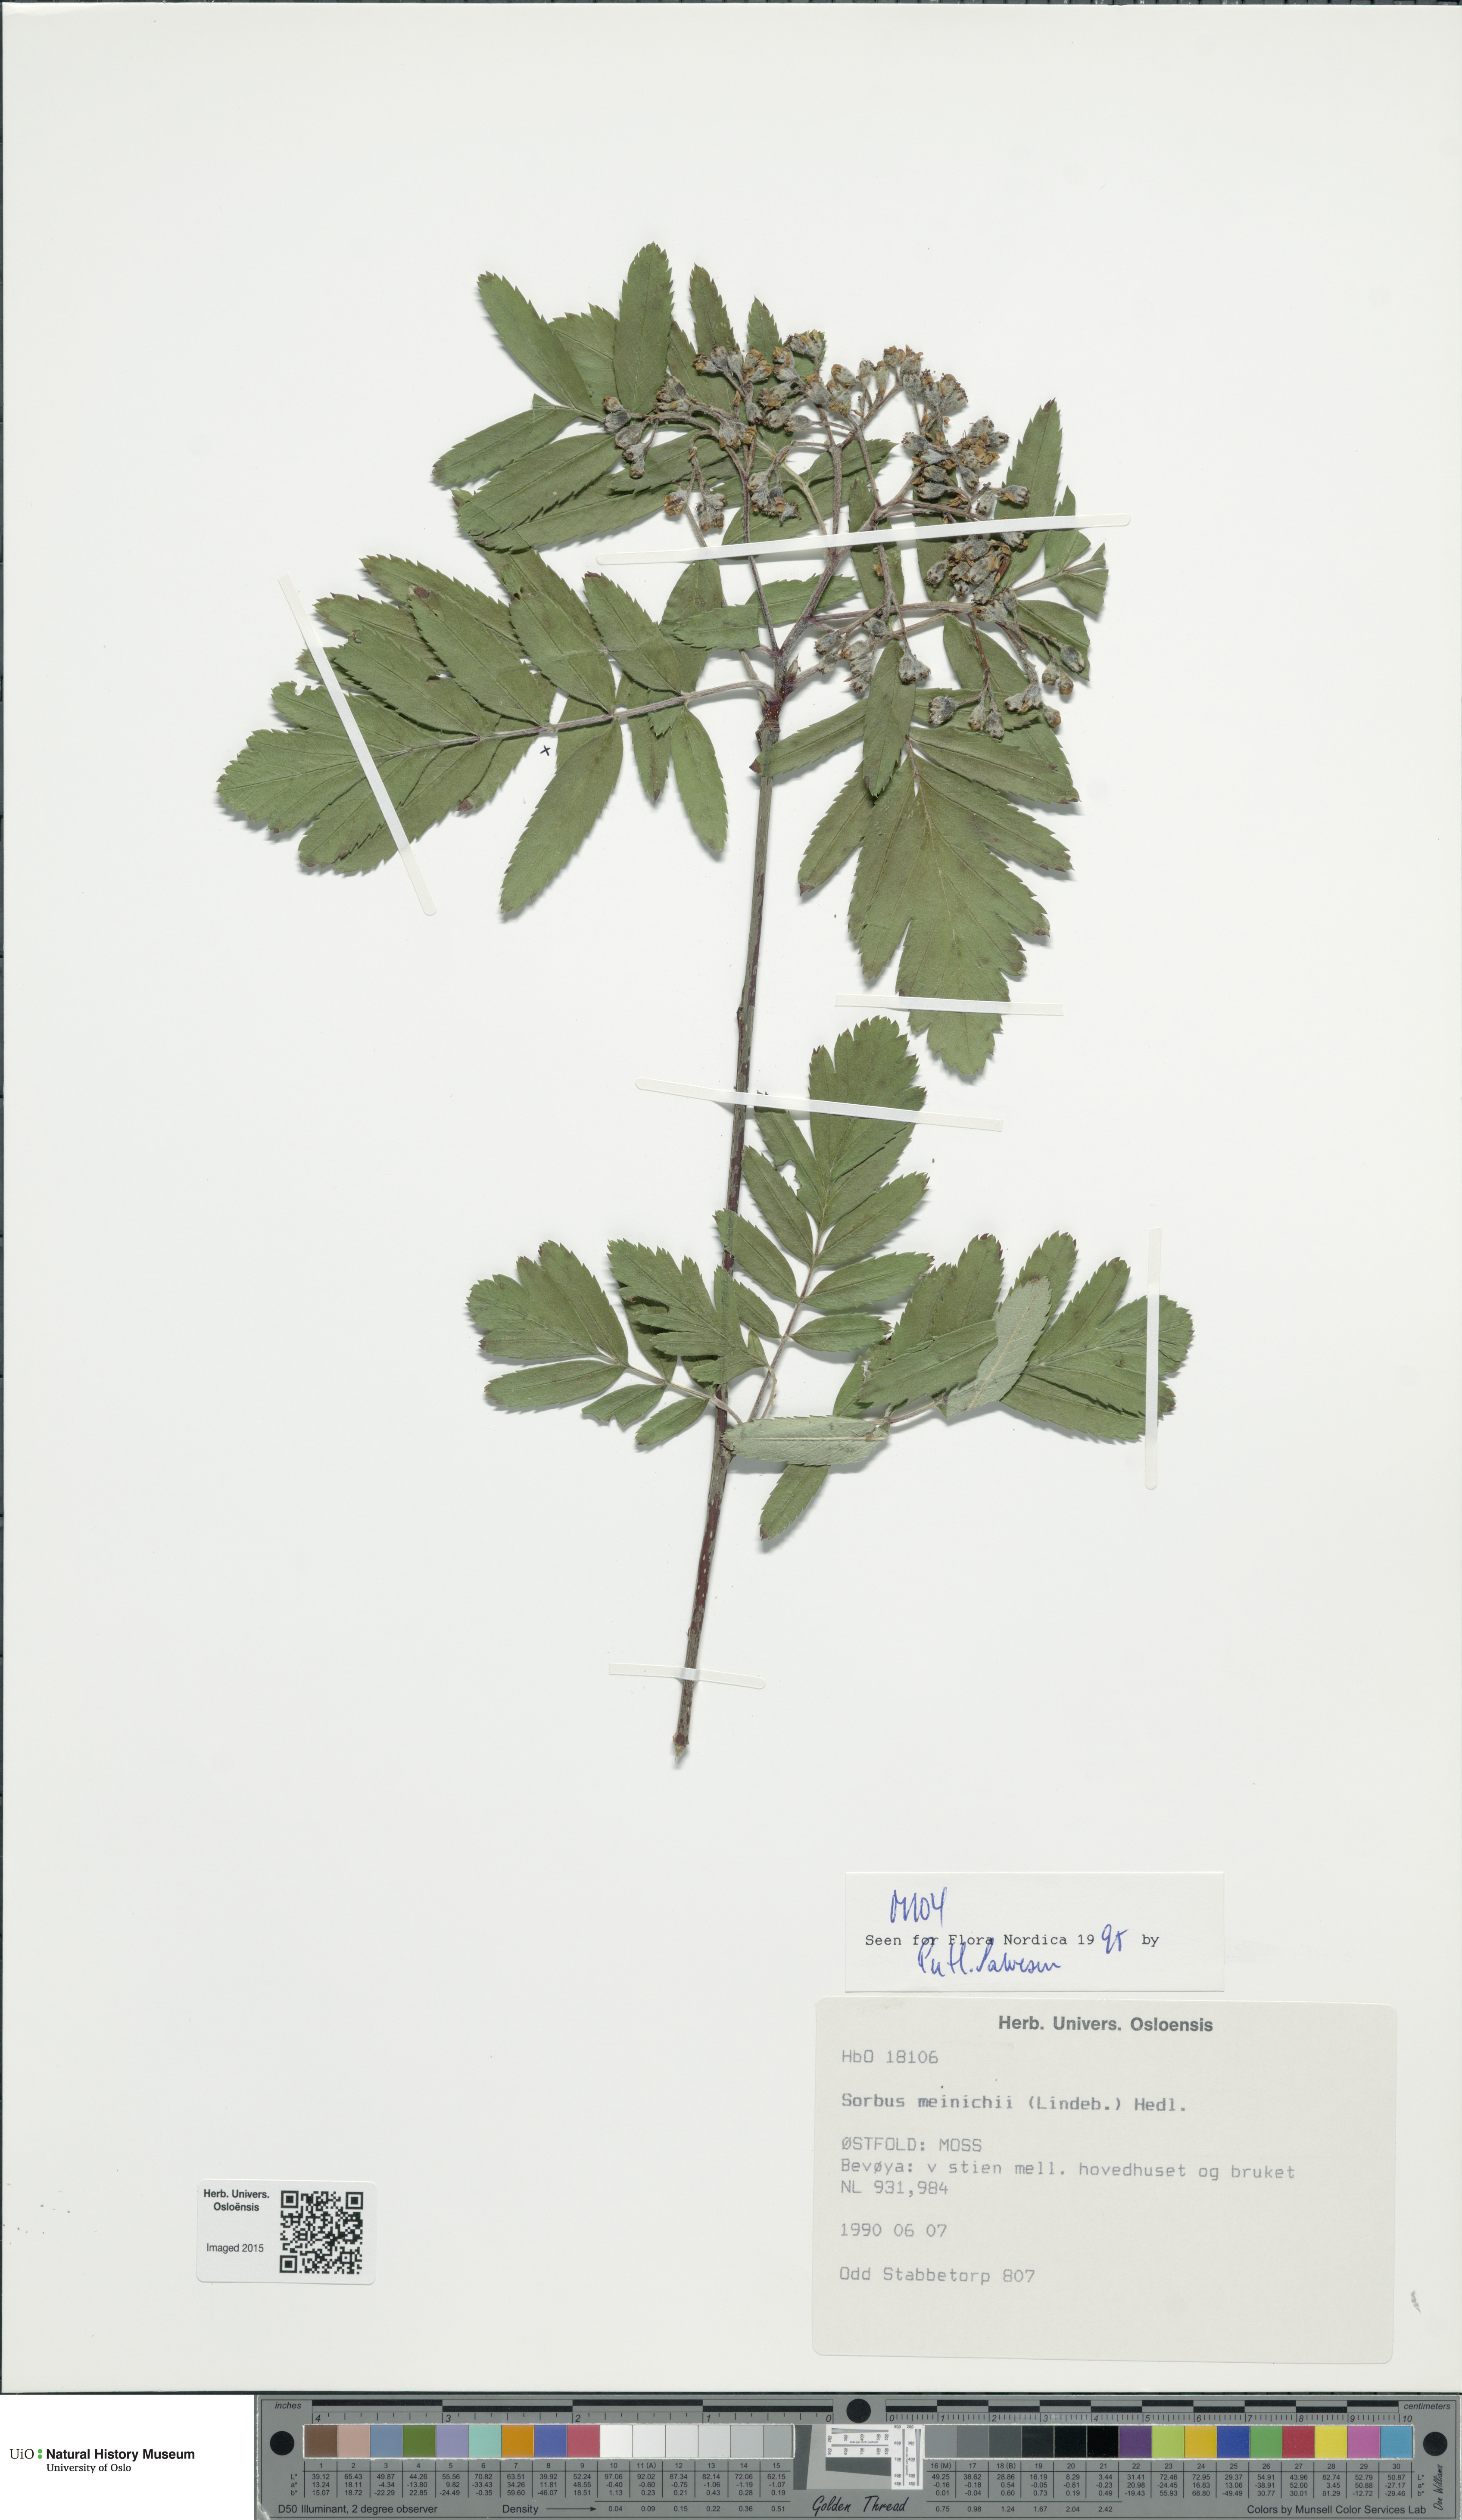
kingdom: Plantae
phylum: Tracheophyta
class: Magnoliopsida
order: Rosales
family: Rosaceae
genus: Hedlundia
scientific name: Hedlundia meinichii
